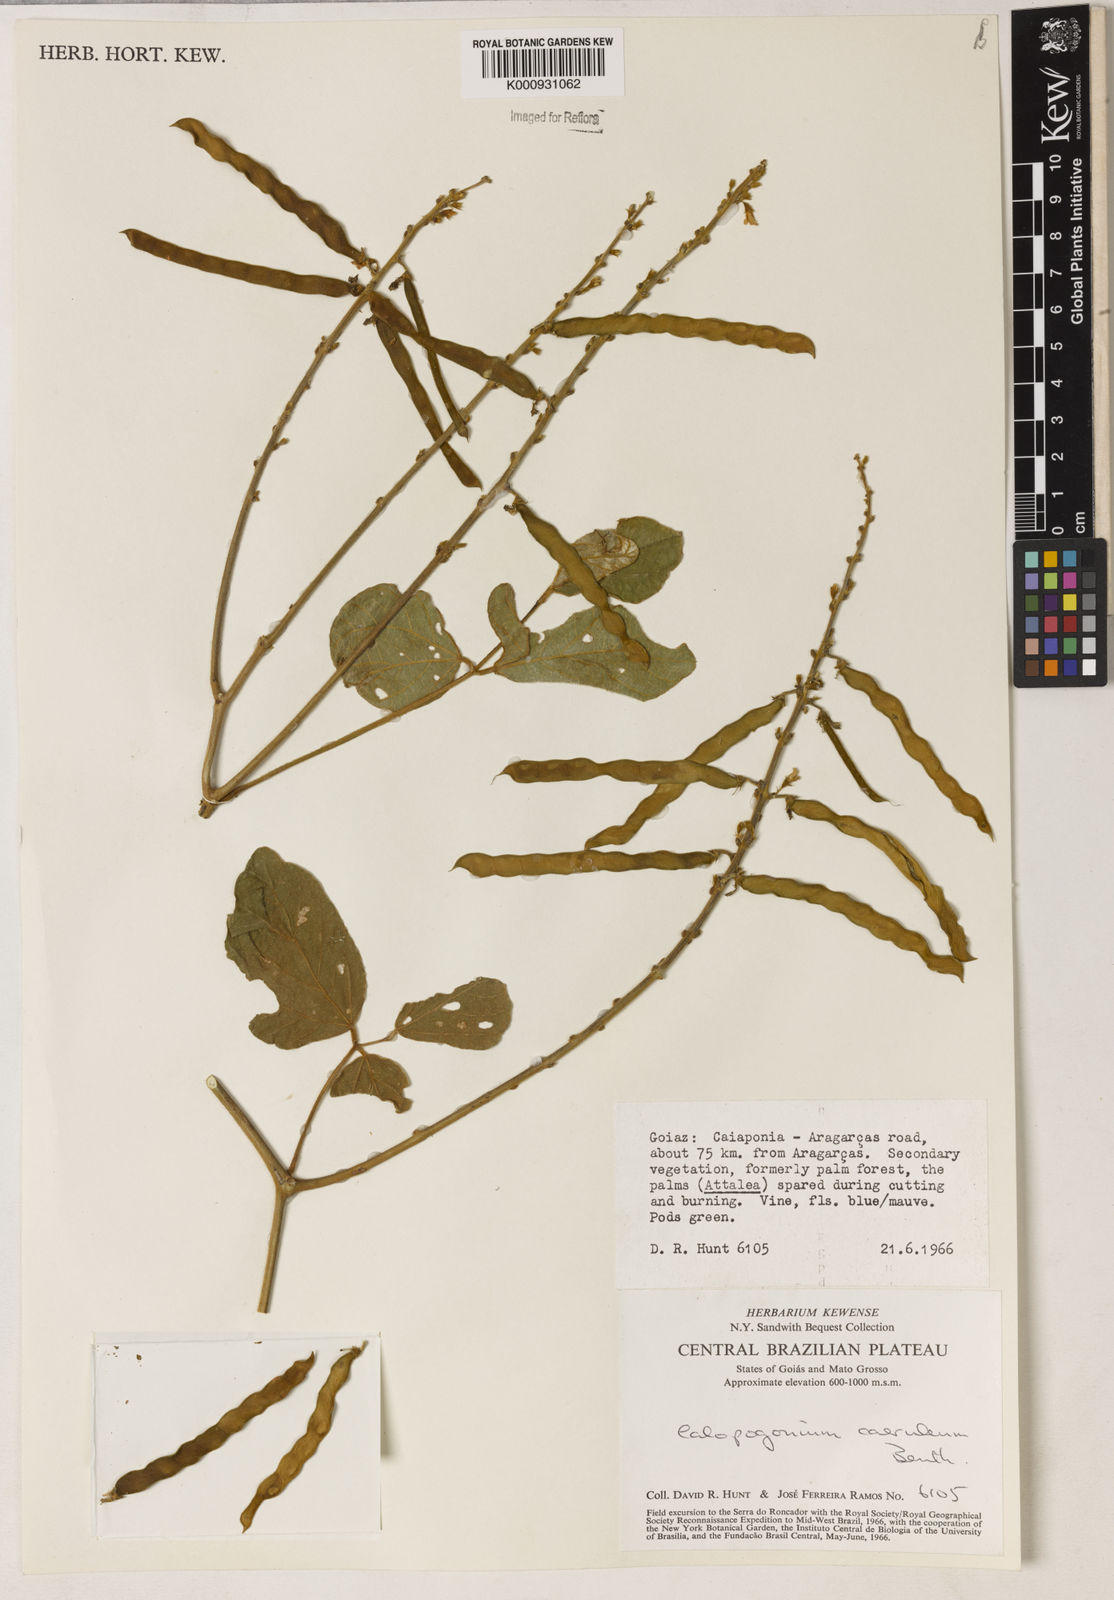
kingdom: Plantae
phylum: Tracheophyta
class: Magnoliopsida
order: Fabales
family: Fabaceae
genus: Calopogonium
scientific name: Calopogonium caeruleum
